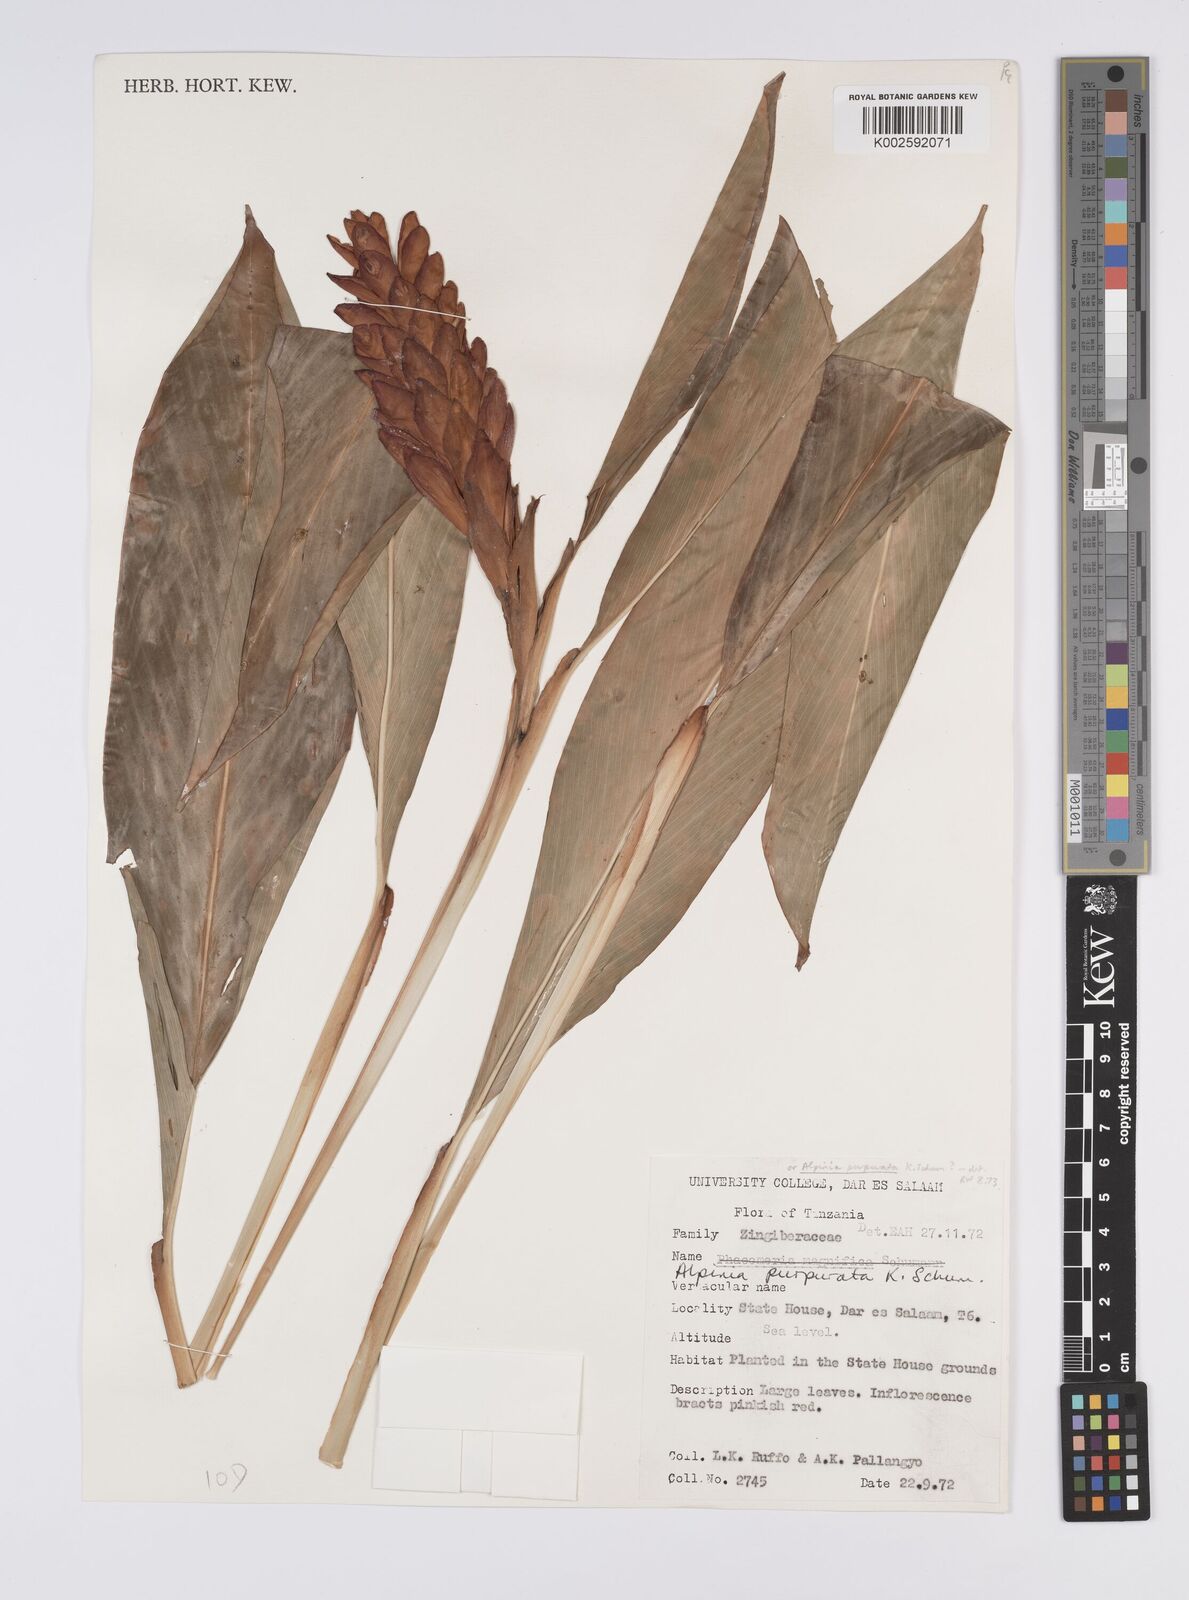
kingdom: Plantae
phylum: Tracheophyta
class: Liliopsida
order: Zingiberales
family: Zingiberaceae
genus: Alpinia
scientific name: Alpinia purpurata
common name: Red ginger
